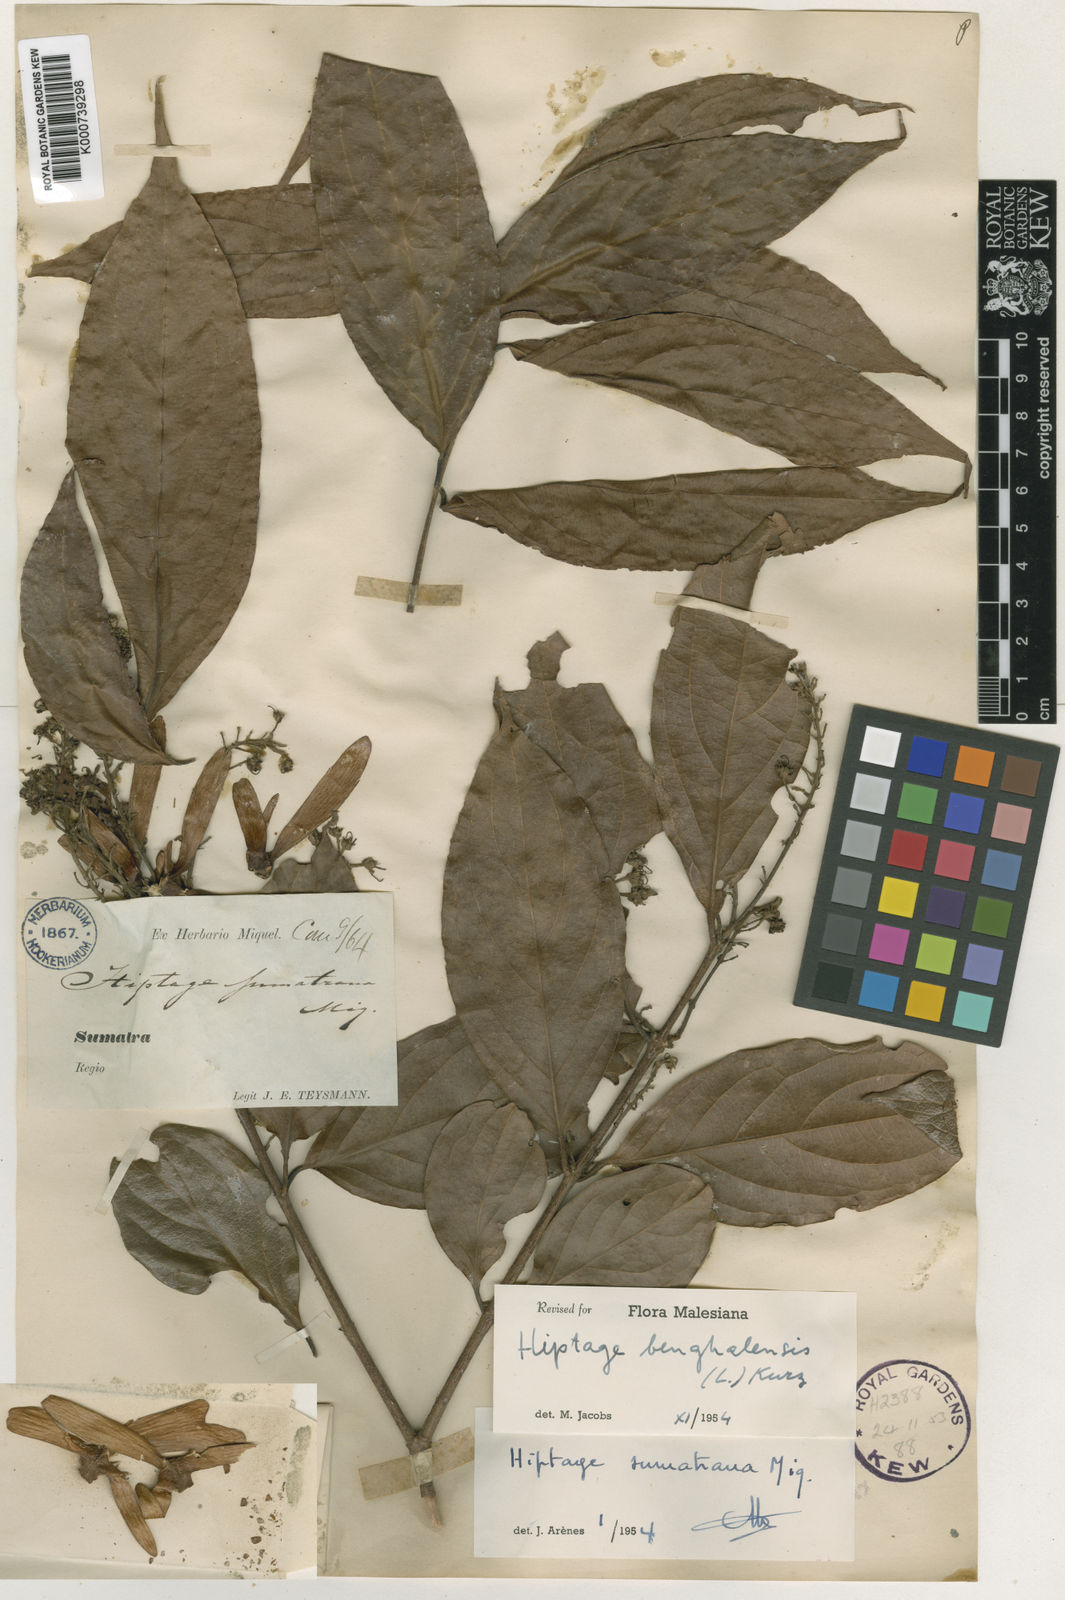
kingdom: Plantae
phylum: Tracheophyta
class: Magnoliopsida
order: Malpighiales
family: Malpighiaceae
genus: Hiptage
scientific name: Hiptage benghalensis
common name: Hiptage
